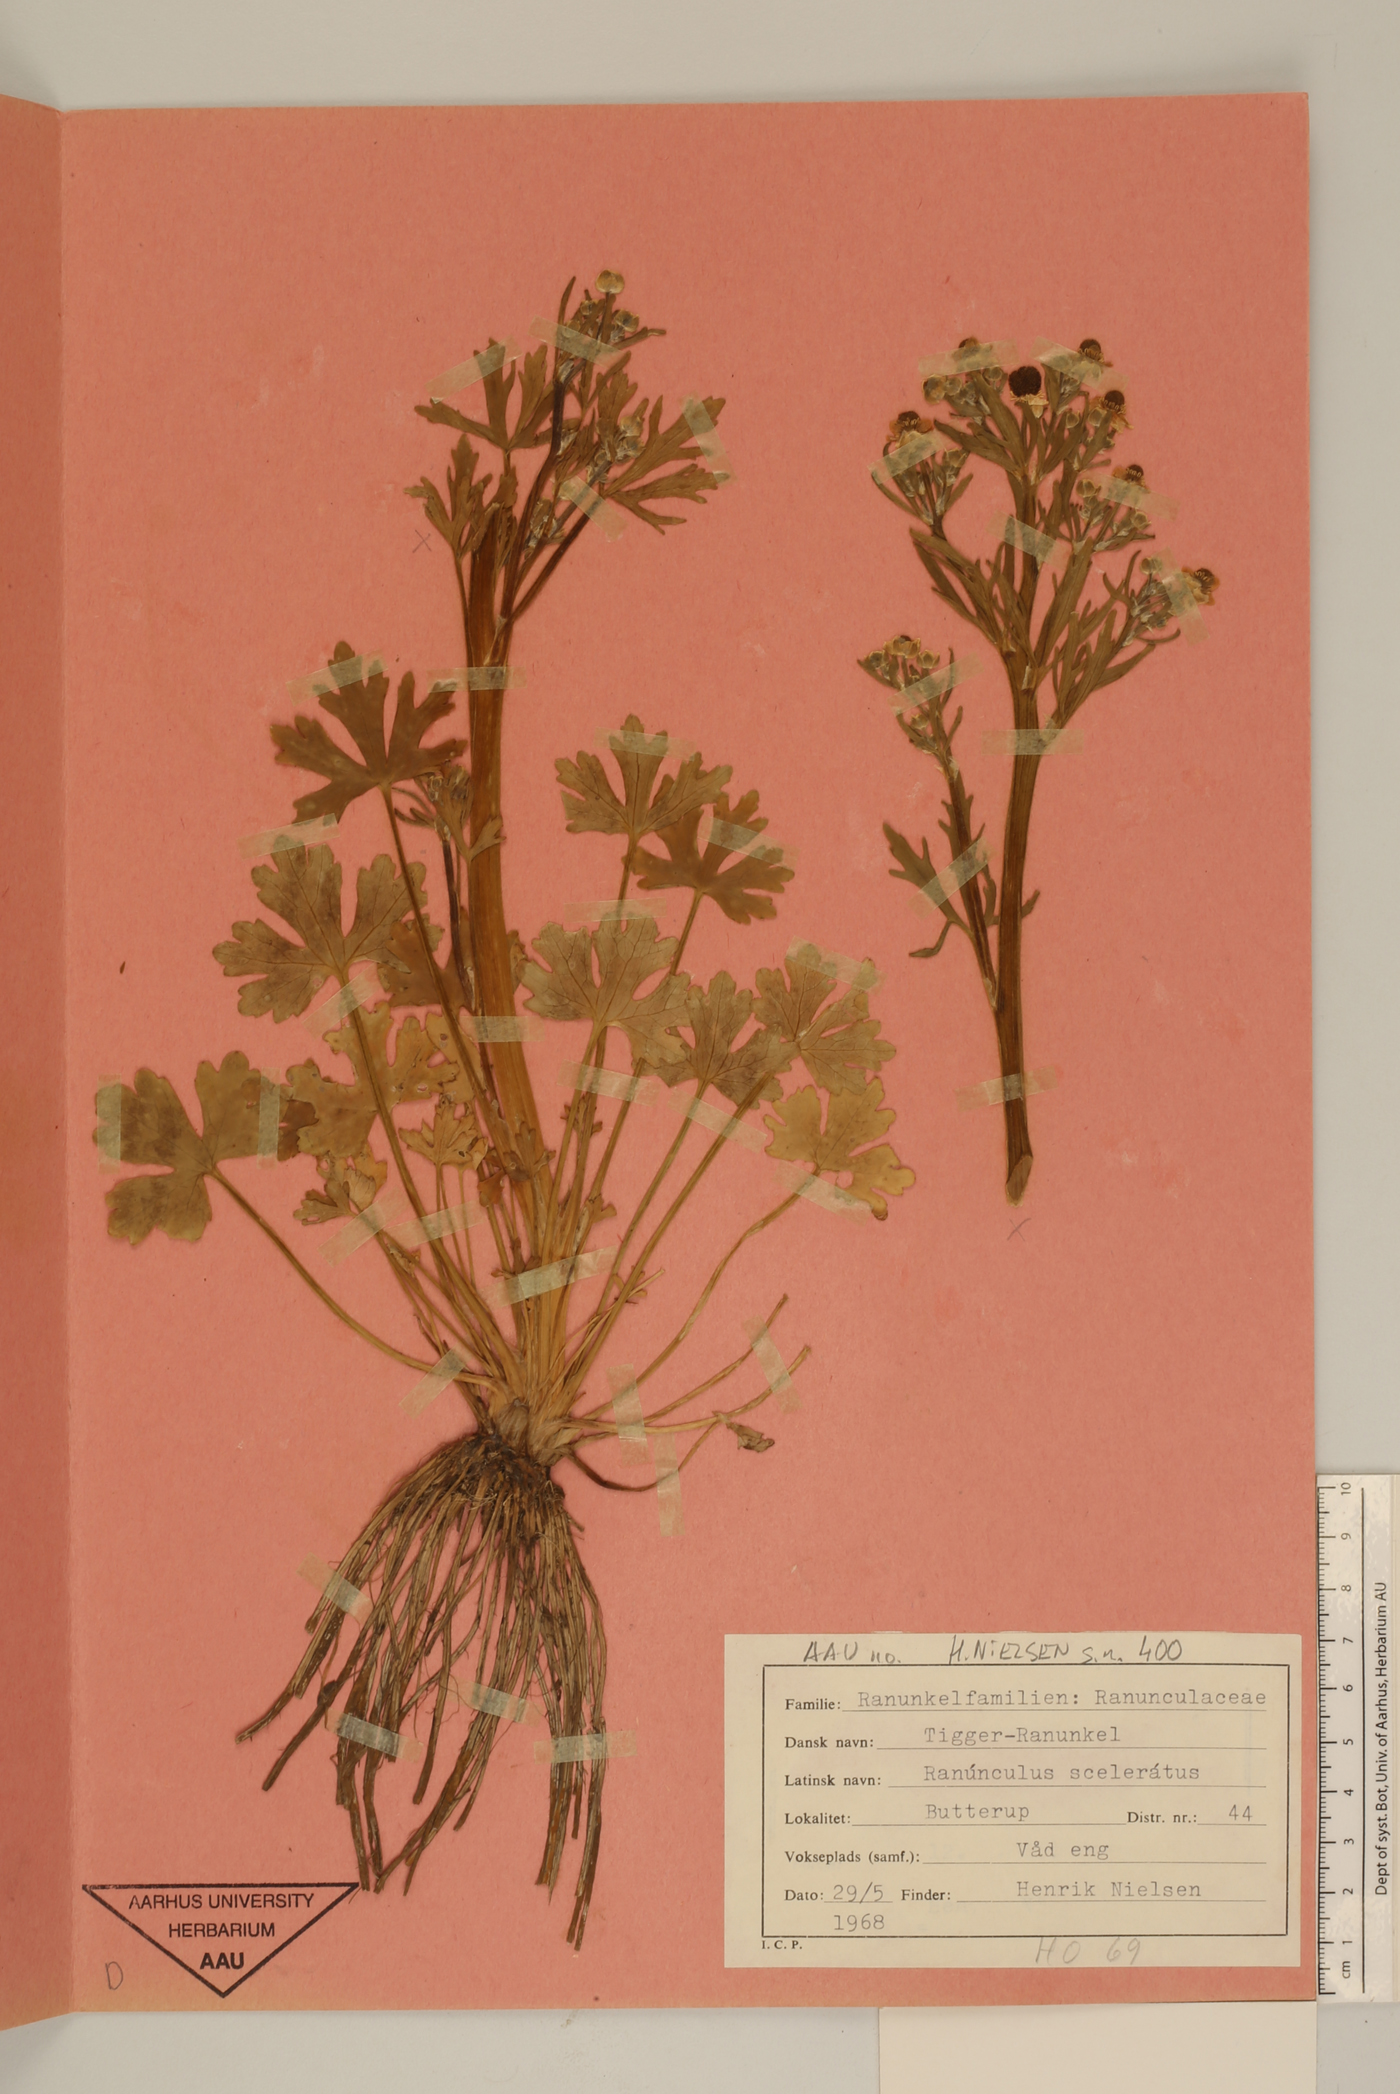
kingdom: Plantae
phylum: Tracheophyta
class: Magnoliopsida
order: Ranunculales
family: Ranunculaceae
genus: Ranunculus
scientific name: Ranunculus sceleratus
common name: Celery-leaved buttercup
